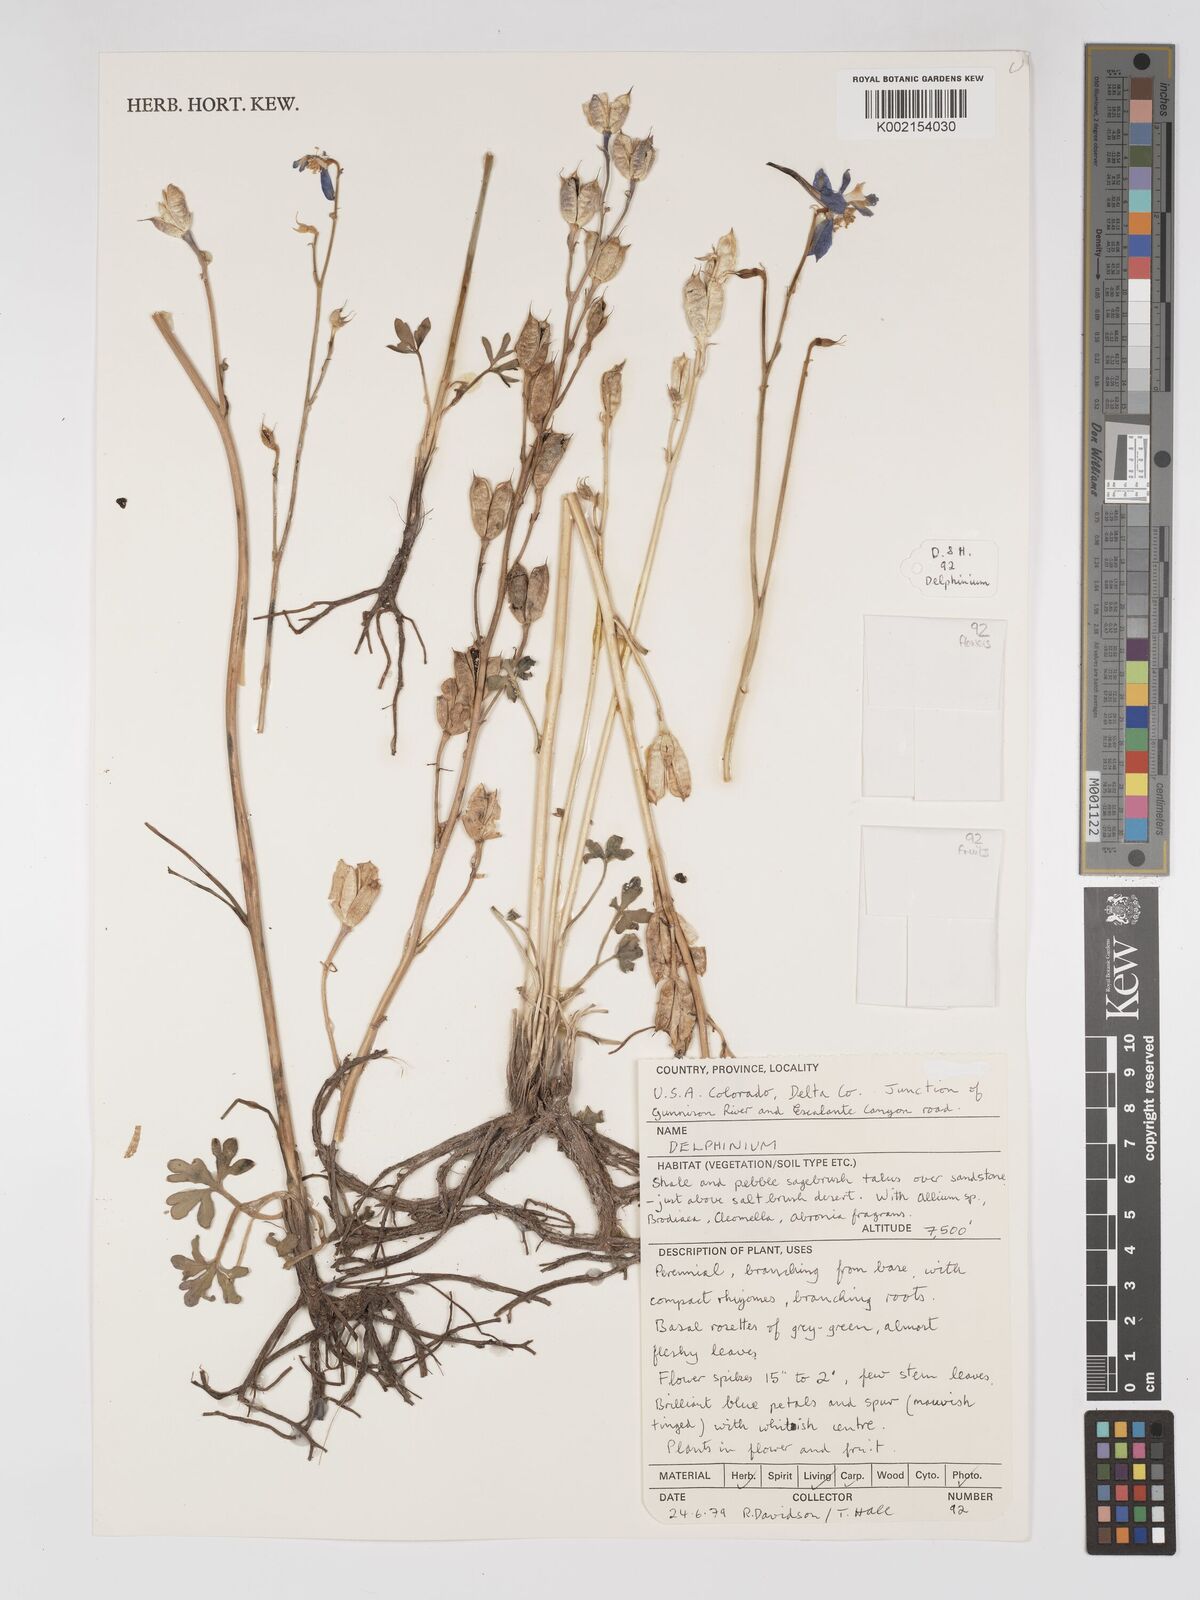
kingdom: Plantae
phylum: Tracheophyta
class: Magnoliopsida
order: Ranunculales
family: Ranunculaceae
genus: Delphinium
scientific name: Delphinium
